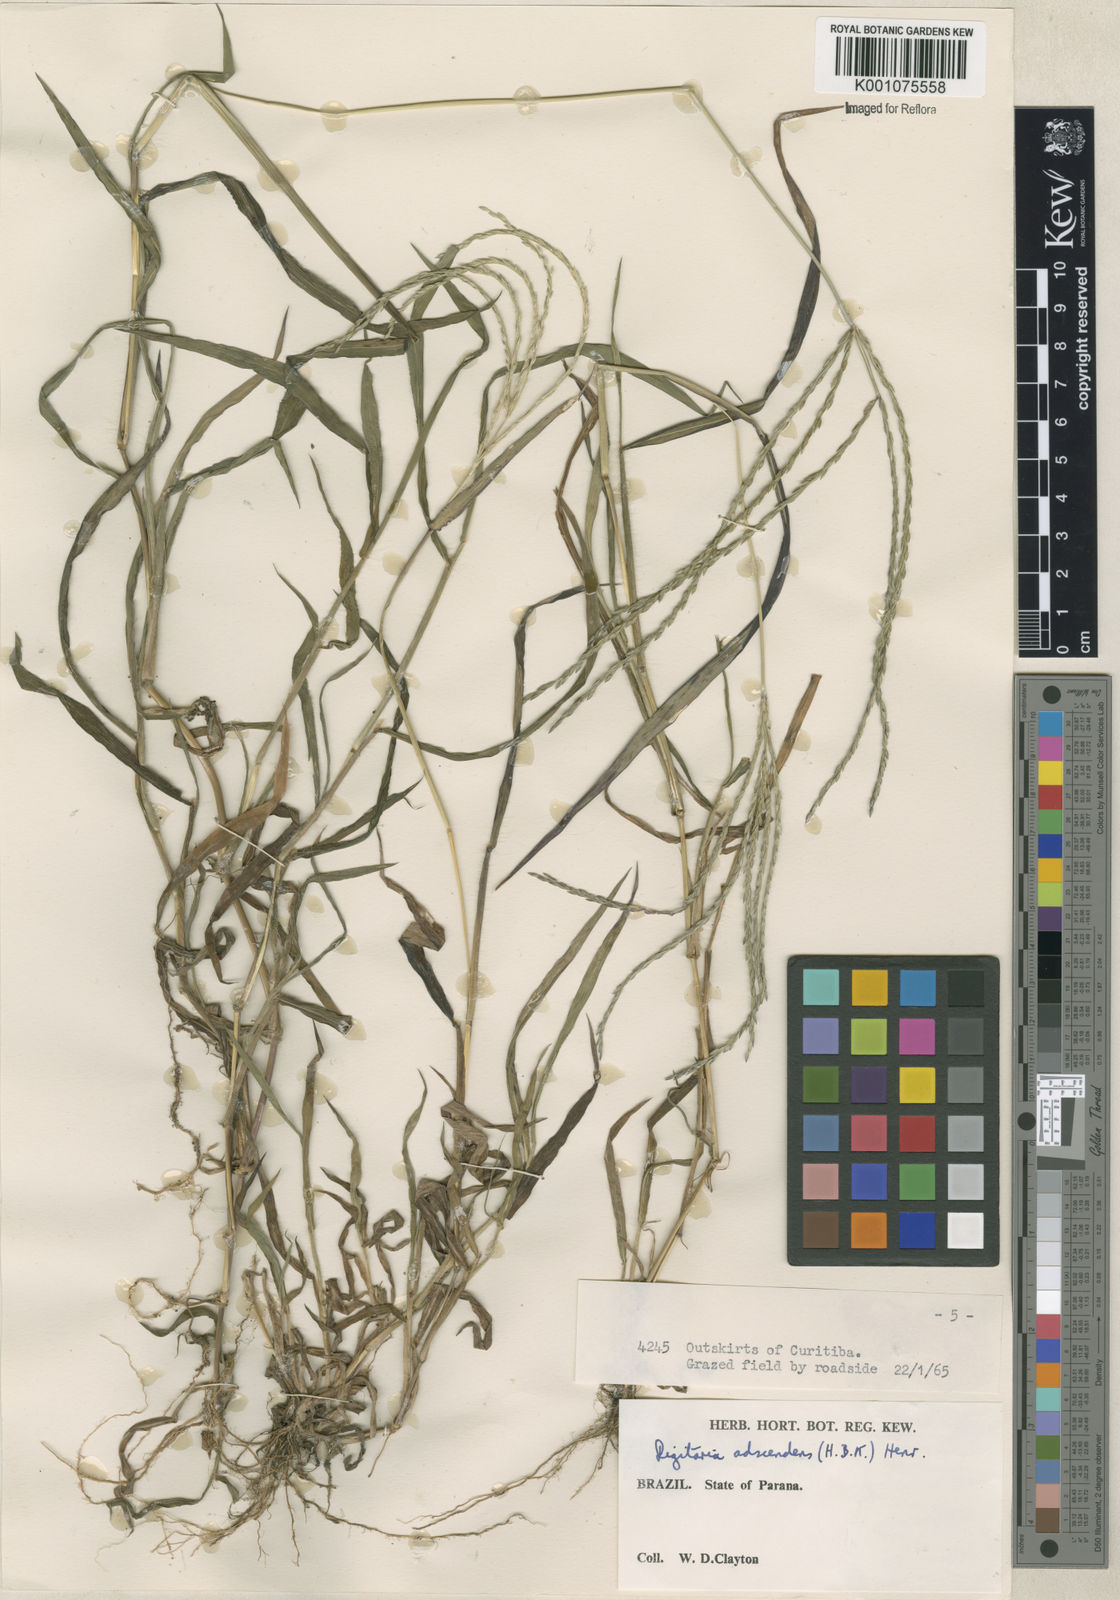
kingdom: Plantae
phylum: Tracheophyta
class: Liliopsida
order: Poales
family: Poaceae
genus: Digitaria
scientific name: Digitaria ciliaris
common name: Tropical finger-grass
